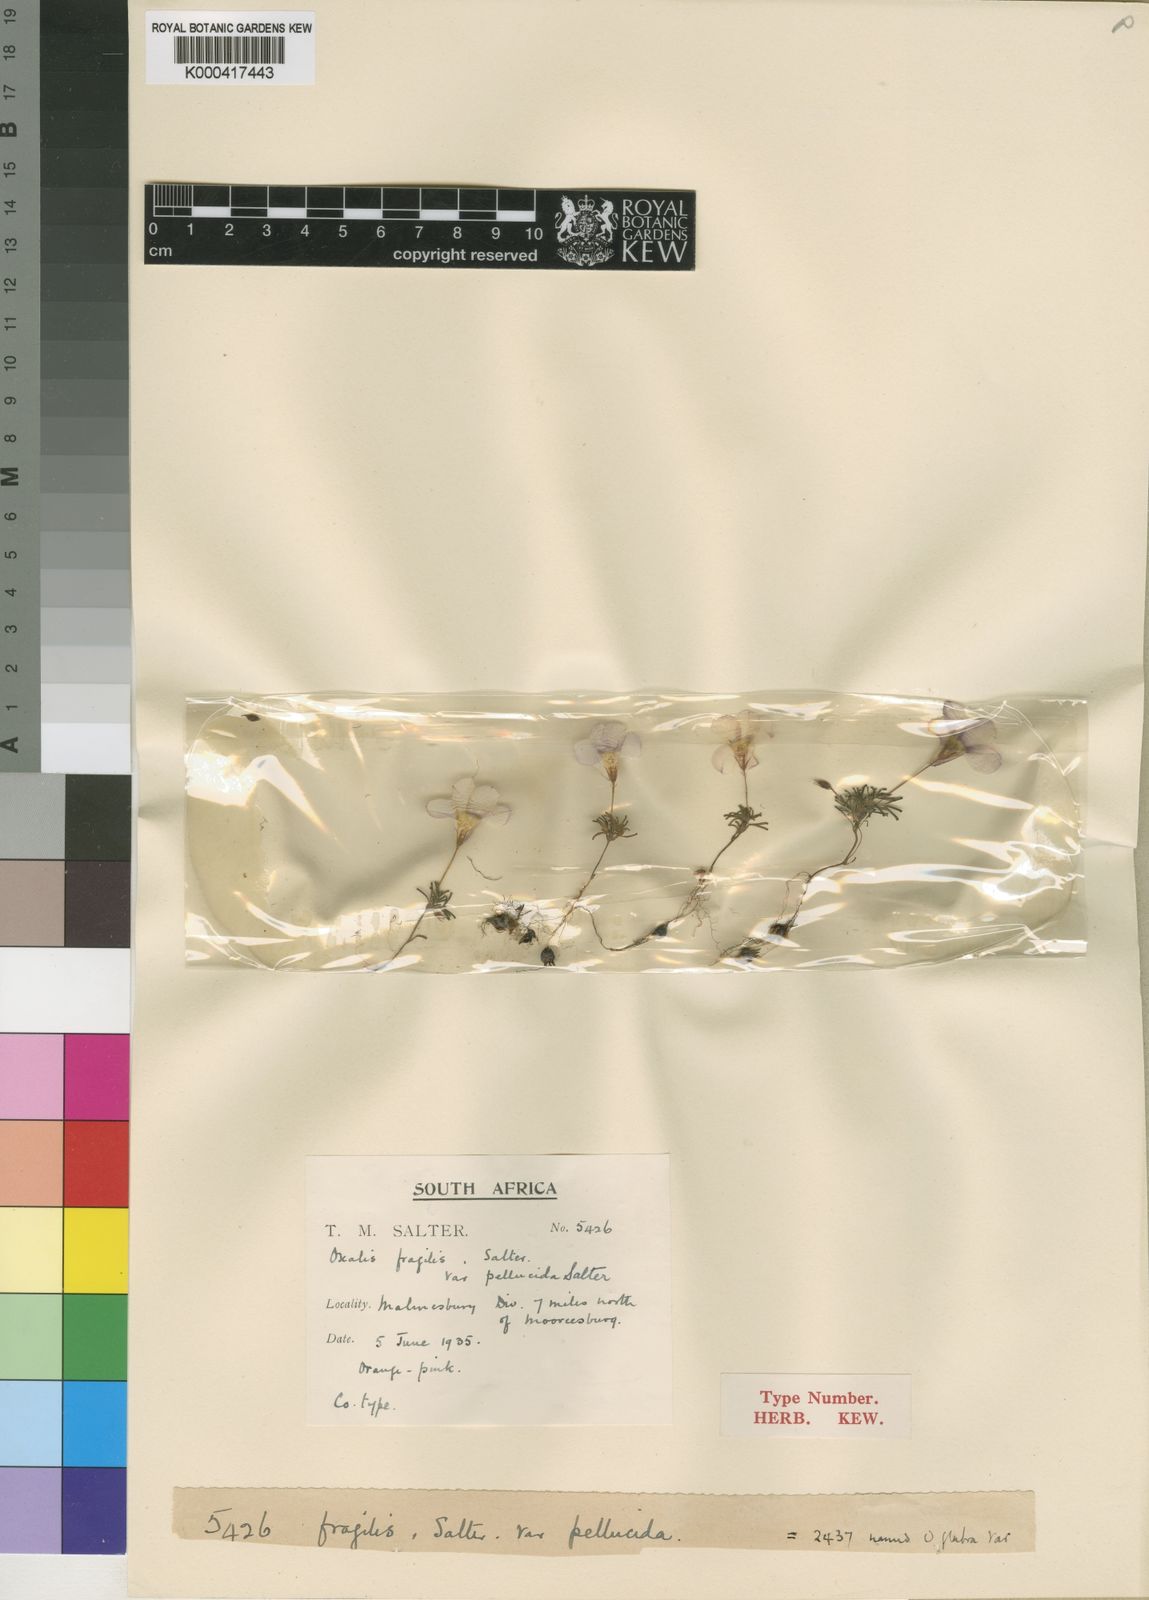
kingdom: Plantae
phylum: Tracheophyta
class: Magnoliopsida
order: Oxalidales
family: Oxalidaceae
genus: Oxalis
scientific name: Oxalis fragilis
